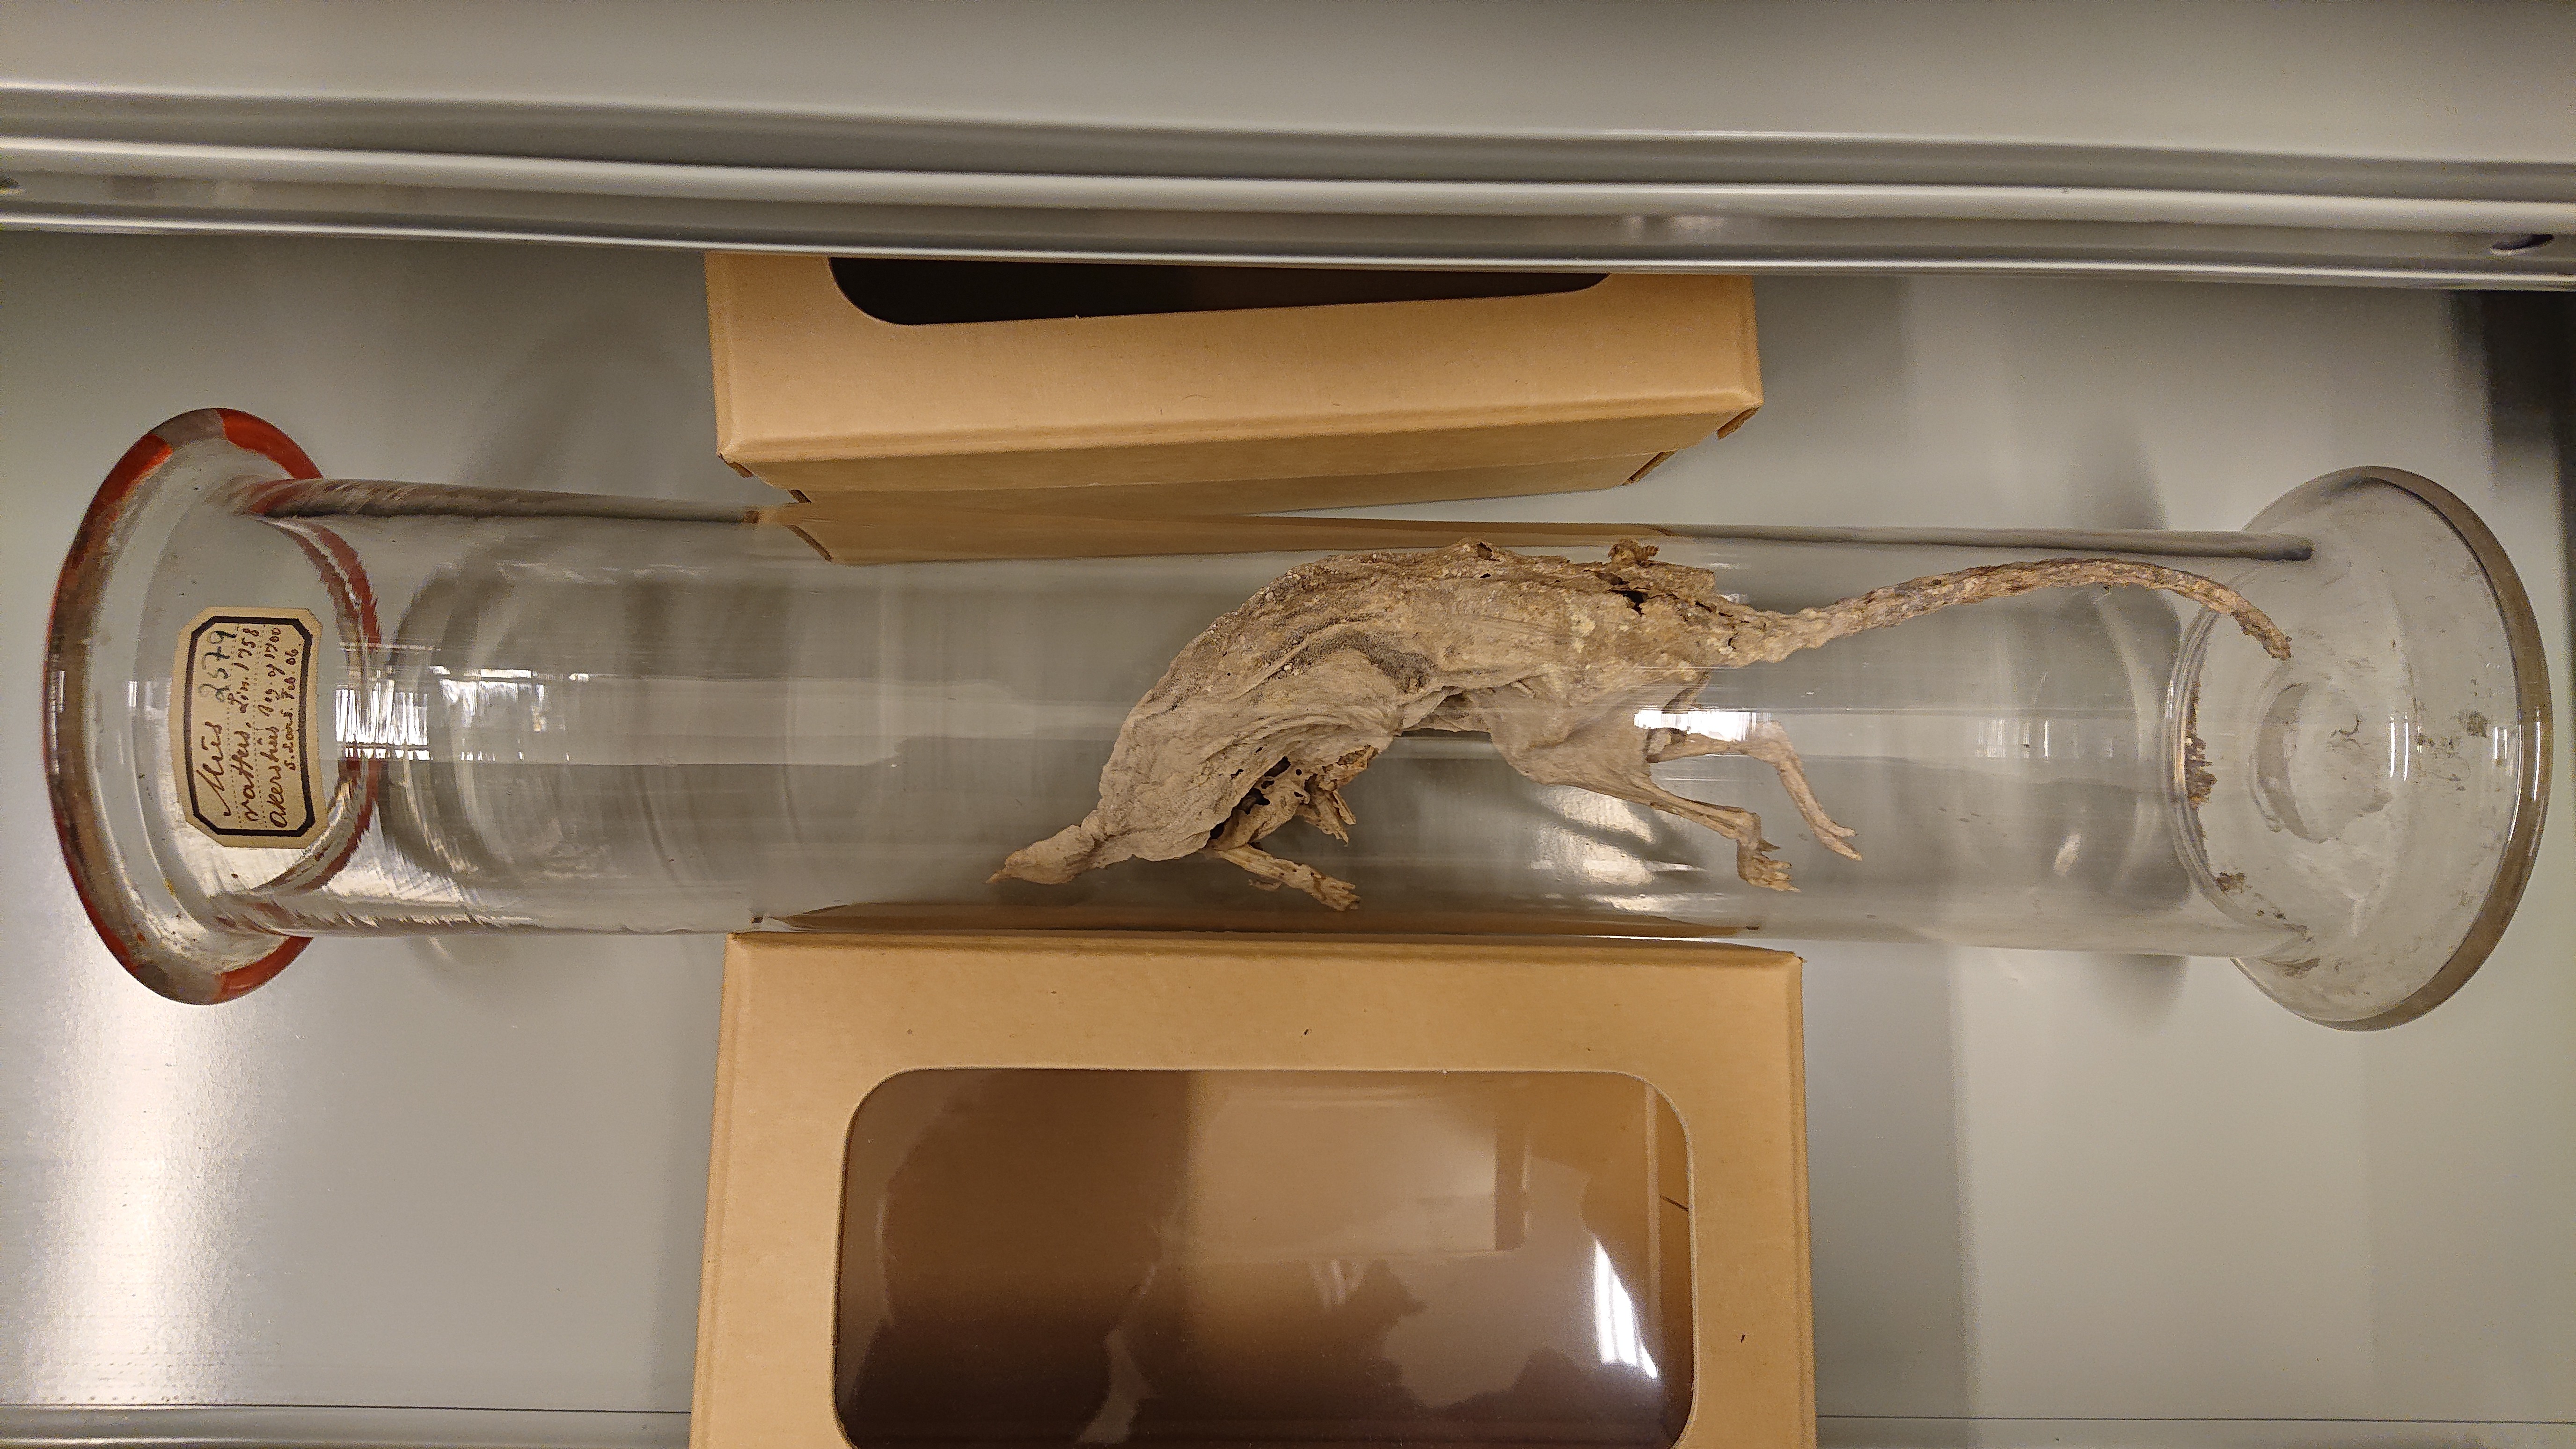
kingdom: Animalia
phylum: Chordata
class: Mammalia
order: Rodentia
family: Muridae
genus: Rattus
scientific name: Rattus rattus
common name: Black rat
